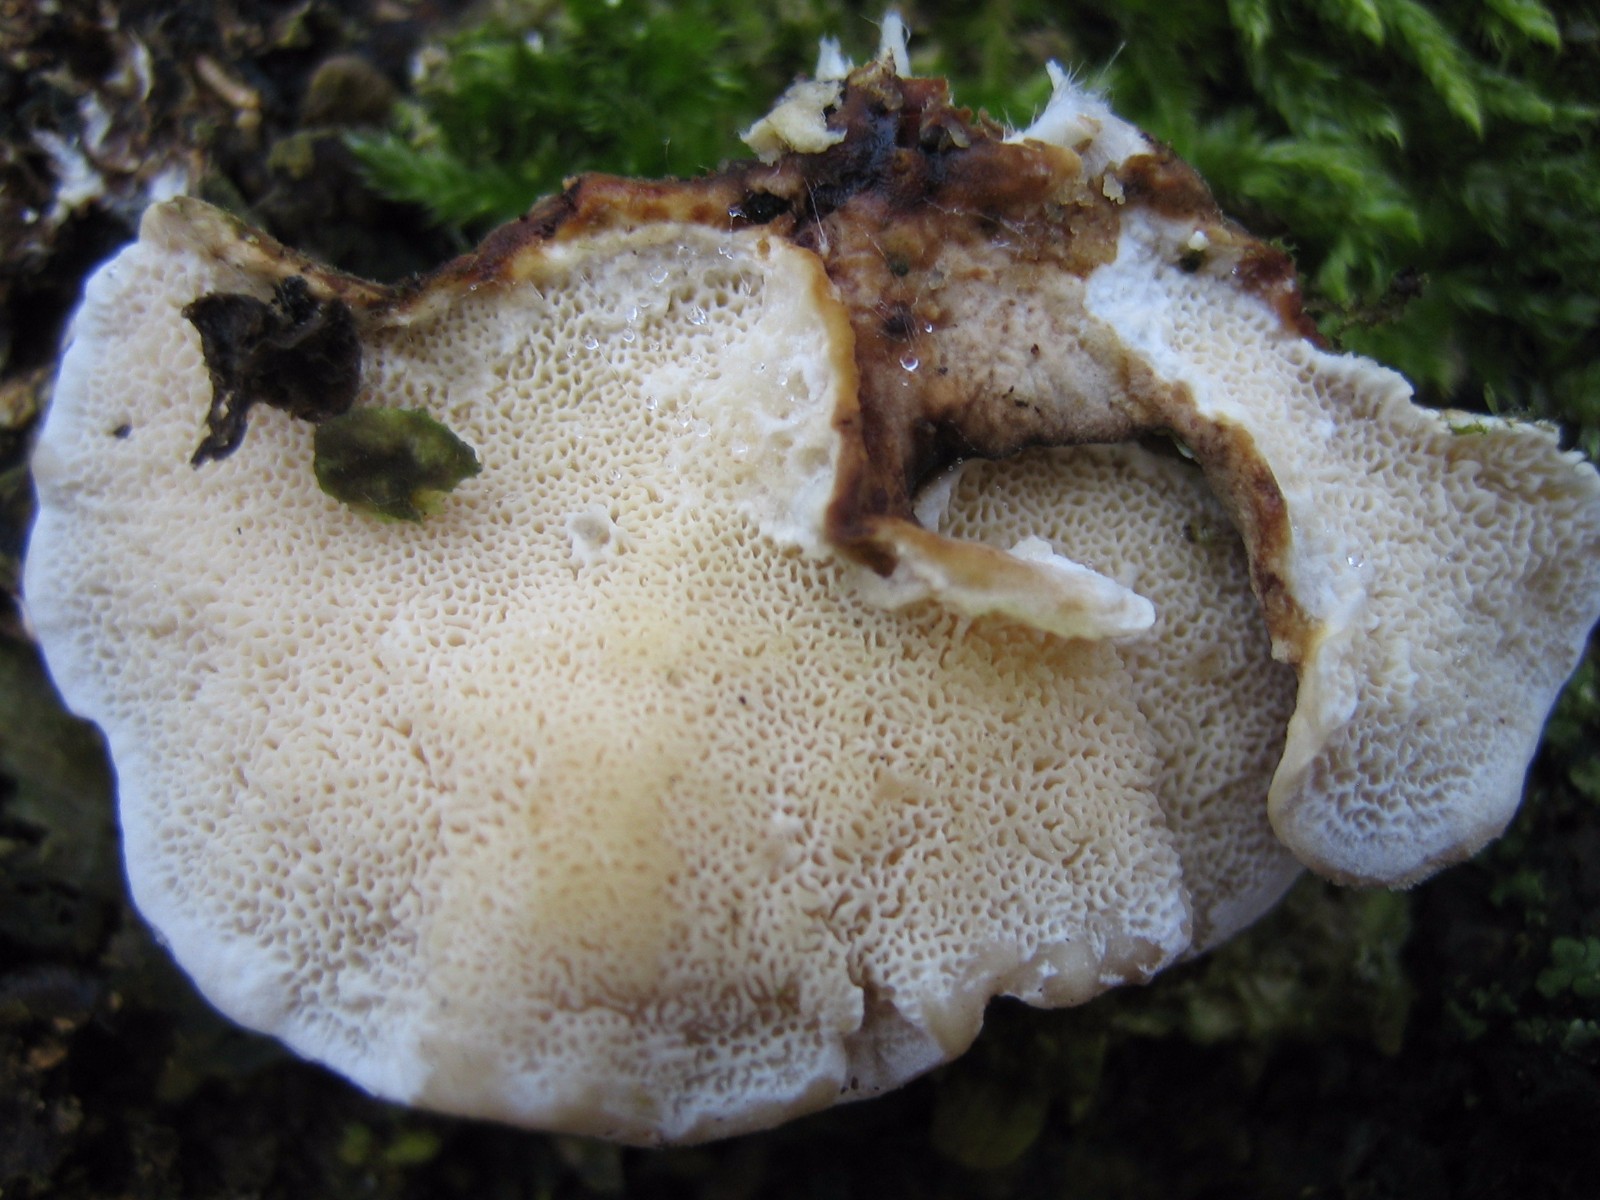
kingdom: Fungi
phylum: Basidiomycota
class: Agaricomycetes
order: Polyporales
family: Polyporaceae
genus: Trametes
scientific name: Trametes versicolor
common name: broget læderporesvamp
